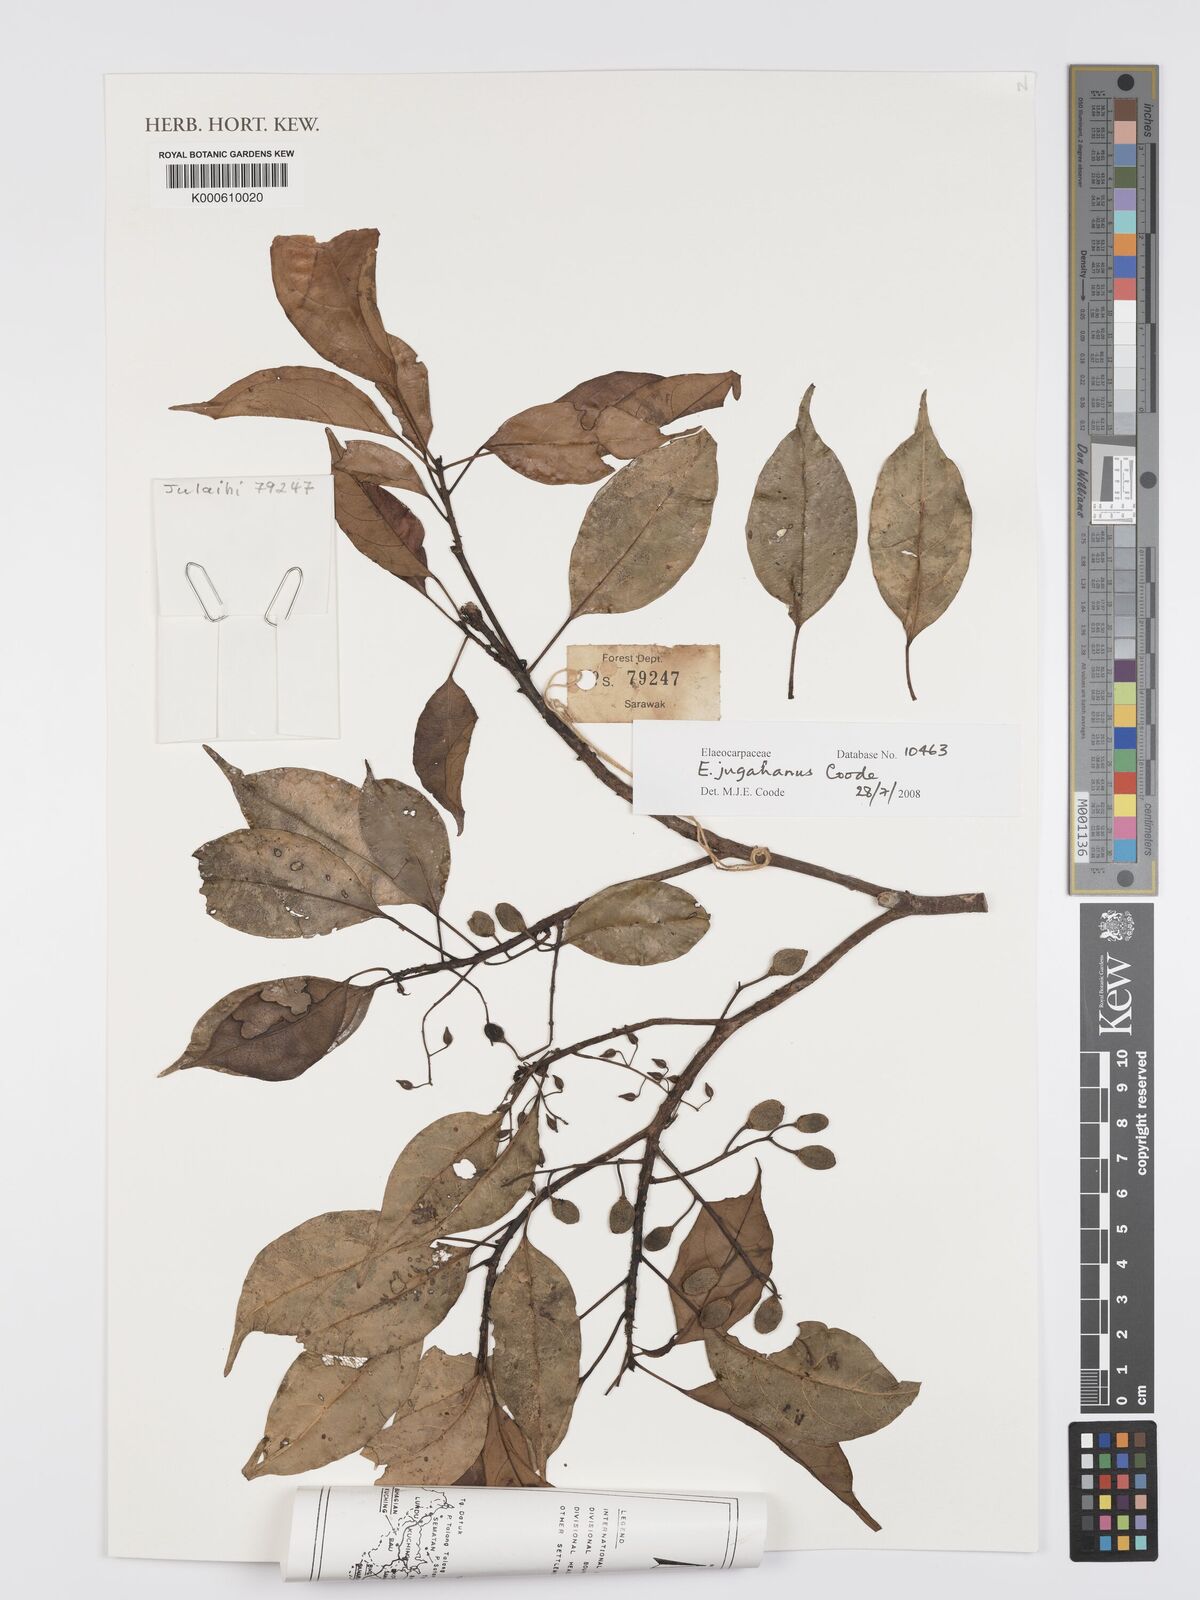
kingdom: Plantae
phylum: Tracheophyta
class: Magnoliopsida
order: Oxalidales
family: Elaeocarpaceae
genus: Elaeocarpus
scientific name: Elaeocarpus jugahanus
